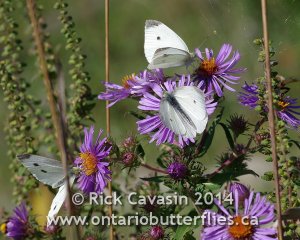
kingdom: Animalia
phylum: Arthropoda
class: Insecta
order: Lepidoptera
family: Pieridae
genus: Pieris
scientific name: Pieris rapae
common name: Cabbage White
